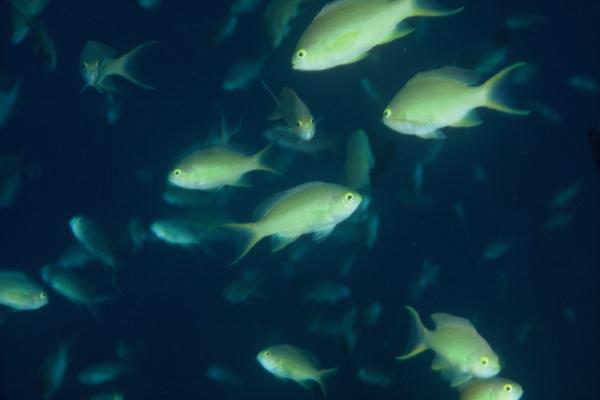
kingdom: Animalia
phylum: Chordata
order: Perciformes
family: Serranidae
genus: Pseudanthias
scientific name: Pseudanthias huchtii
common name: Pacific basslet
